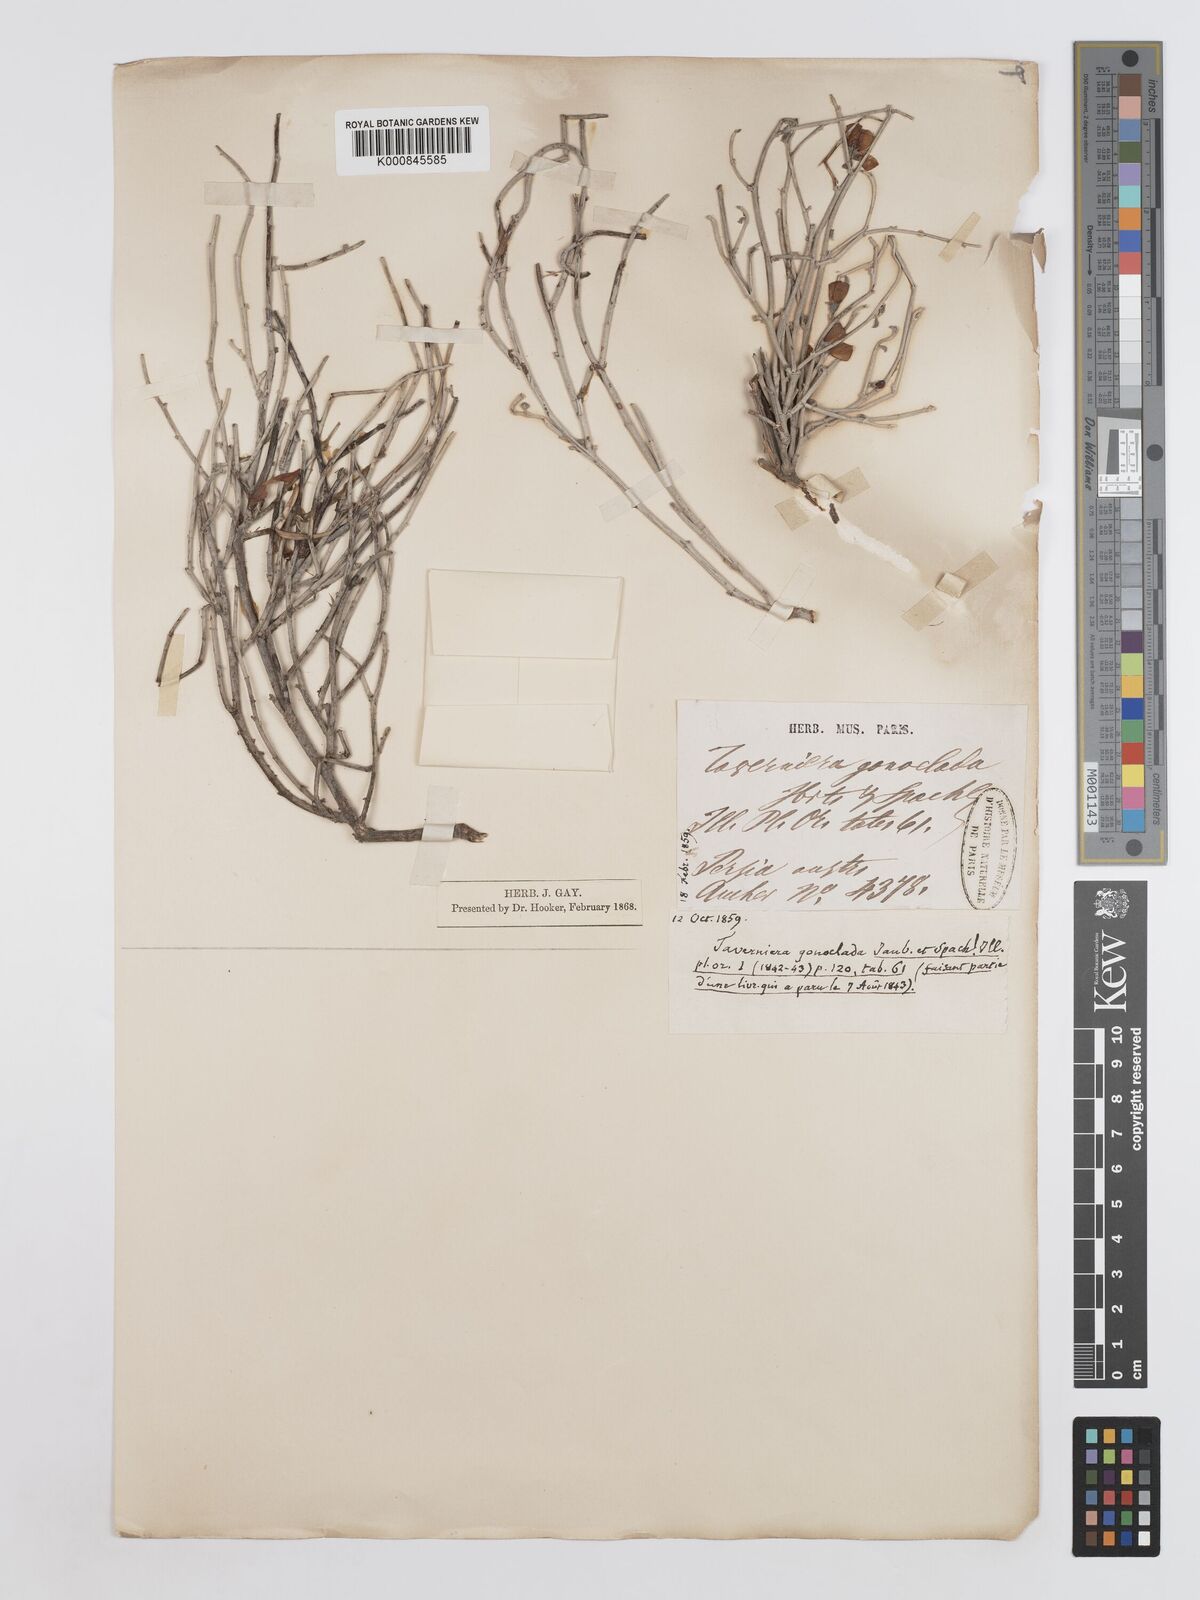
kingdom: Plantae
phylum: Tracheophyta
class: Magnoliopsida
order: Fabales
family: Fabaceae
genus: Taverniera
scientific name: Taverniera
